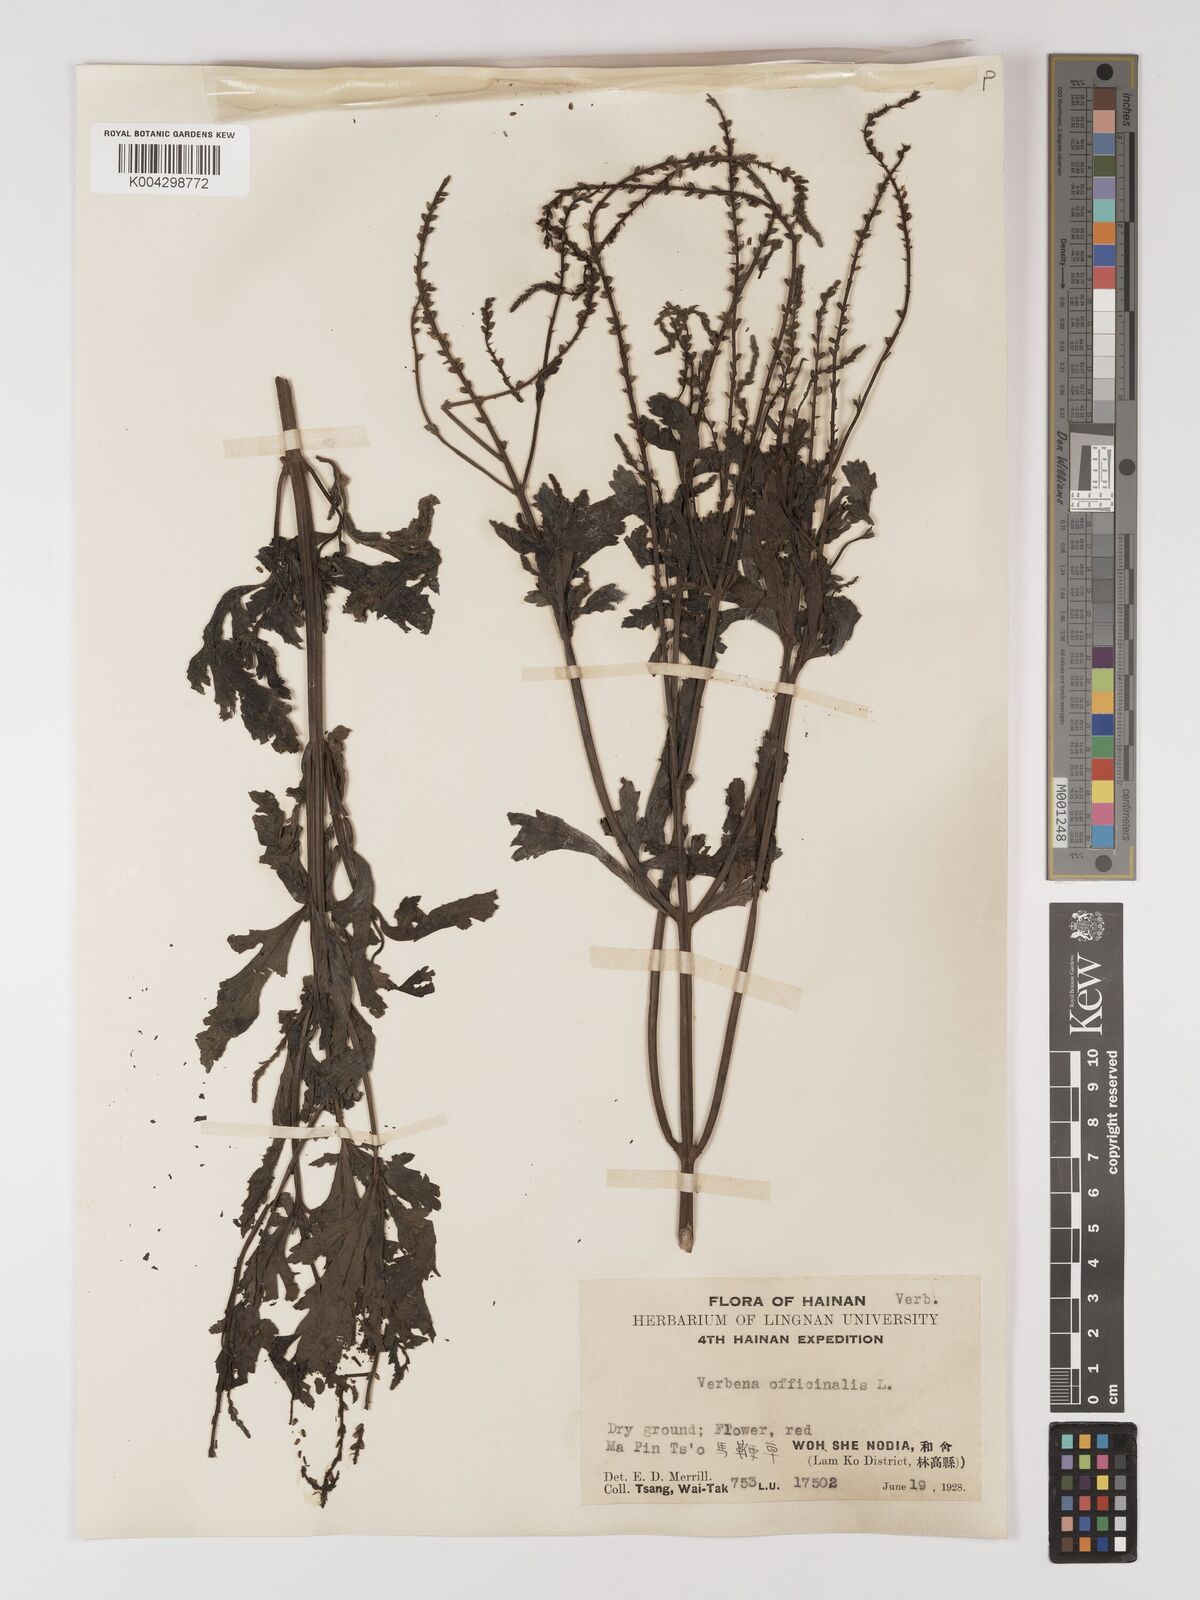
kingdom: Plantae
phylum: Tracheophyta
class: Magnoliopsida
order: Lamiales
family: Verbenaceae
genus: Verbena
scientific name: Verbena officinalis
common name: Vervain
